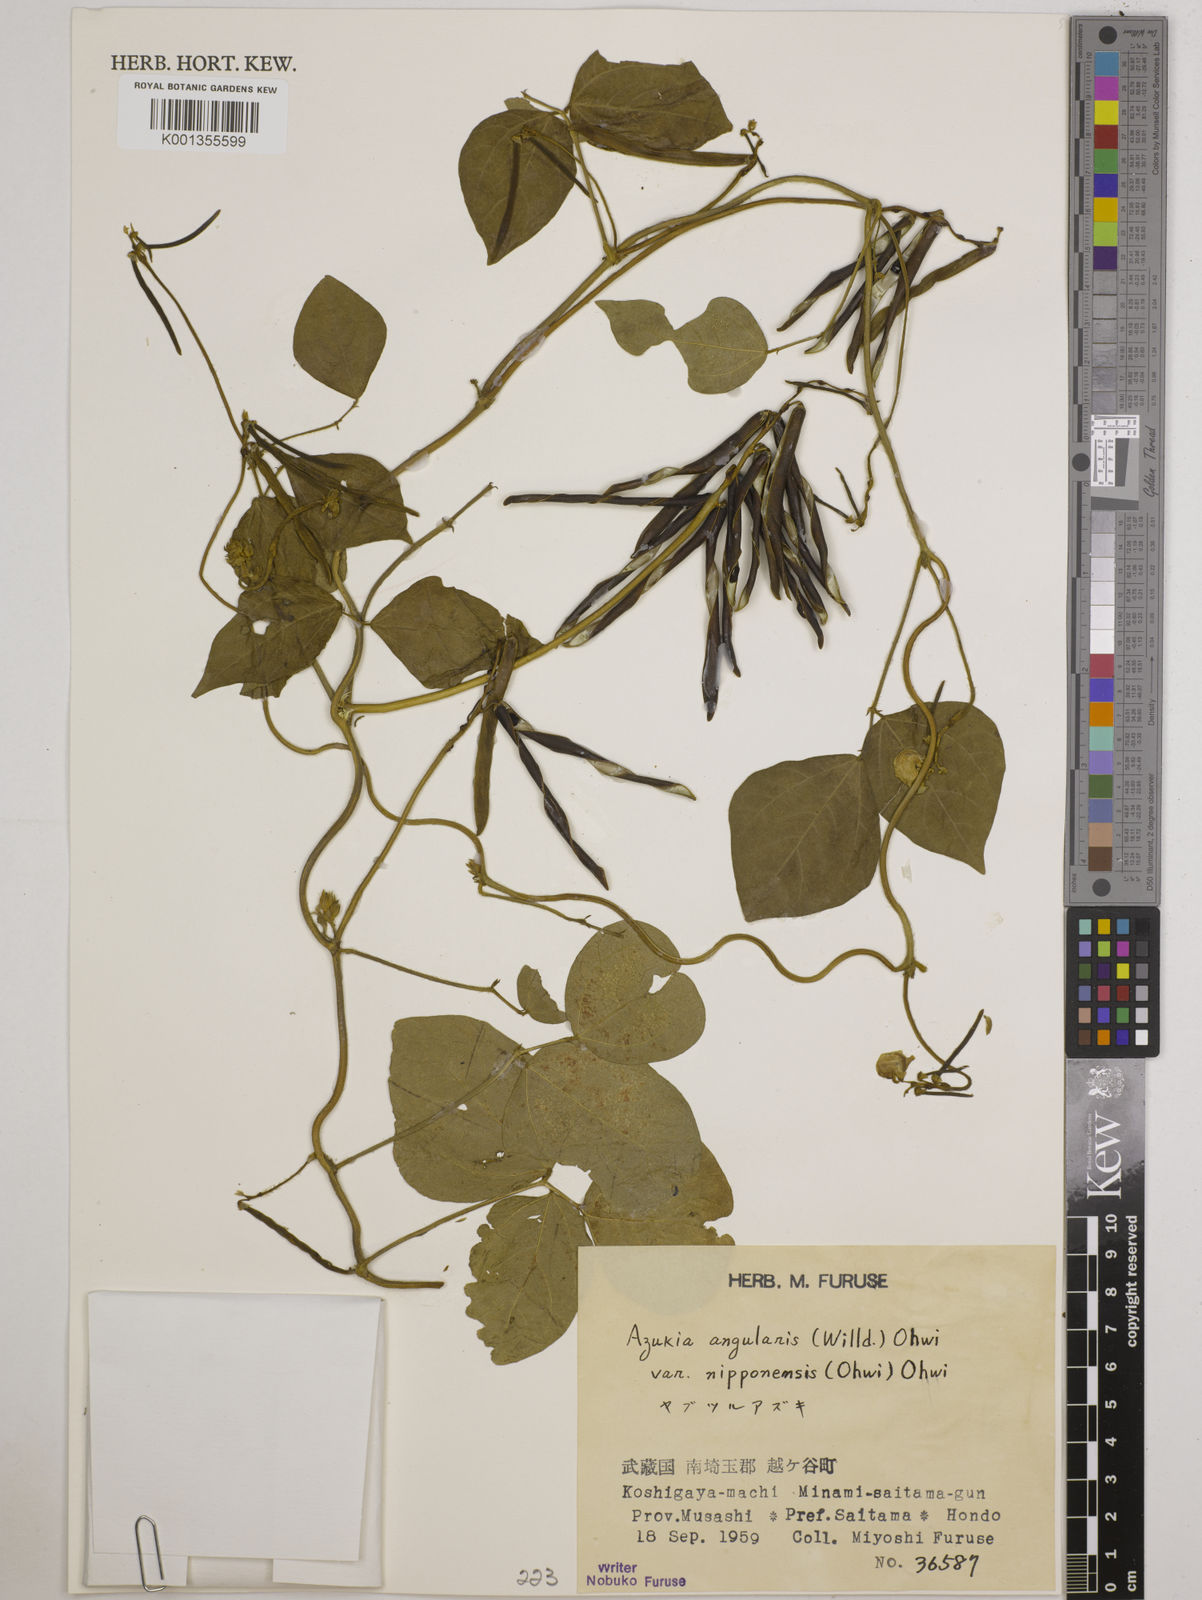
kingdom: Plantae
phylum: Tracheophyta
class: Magnoliopsida
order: Fabales
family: Fabaceae
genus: Vigna
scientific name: Vigna
